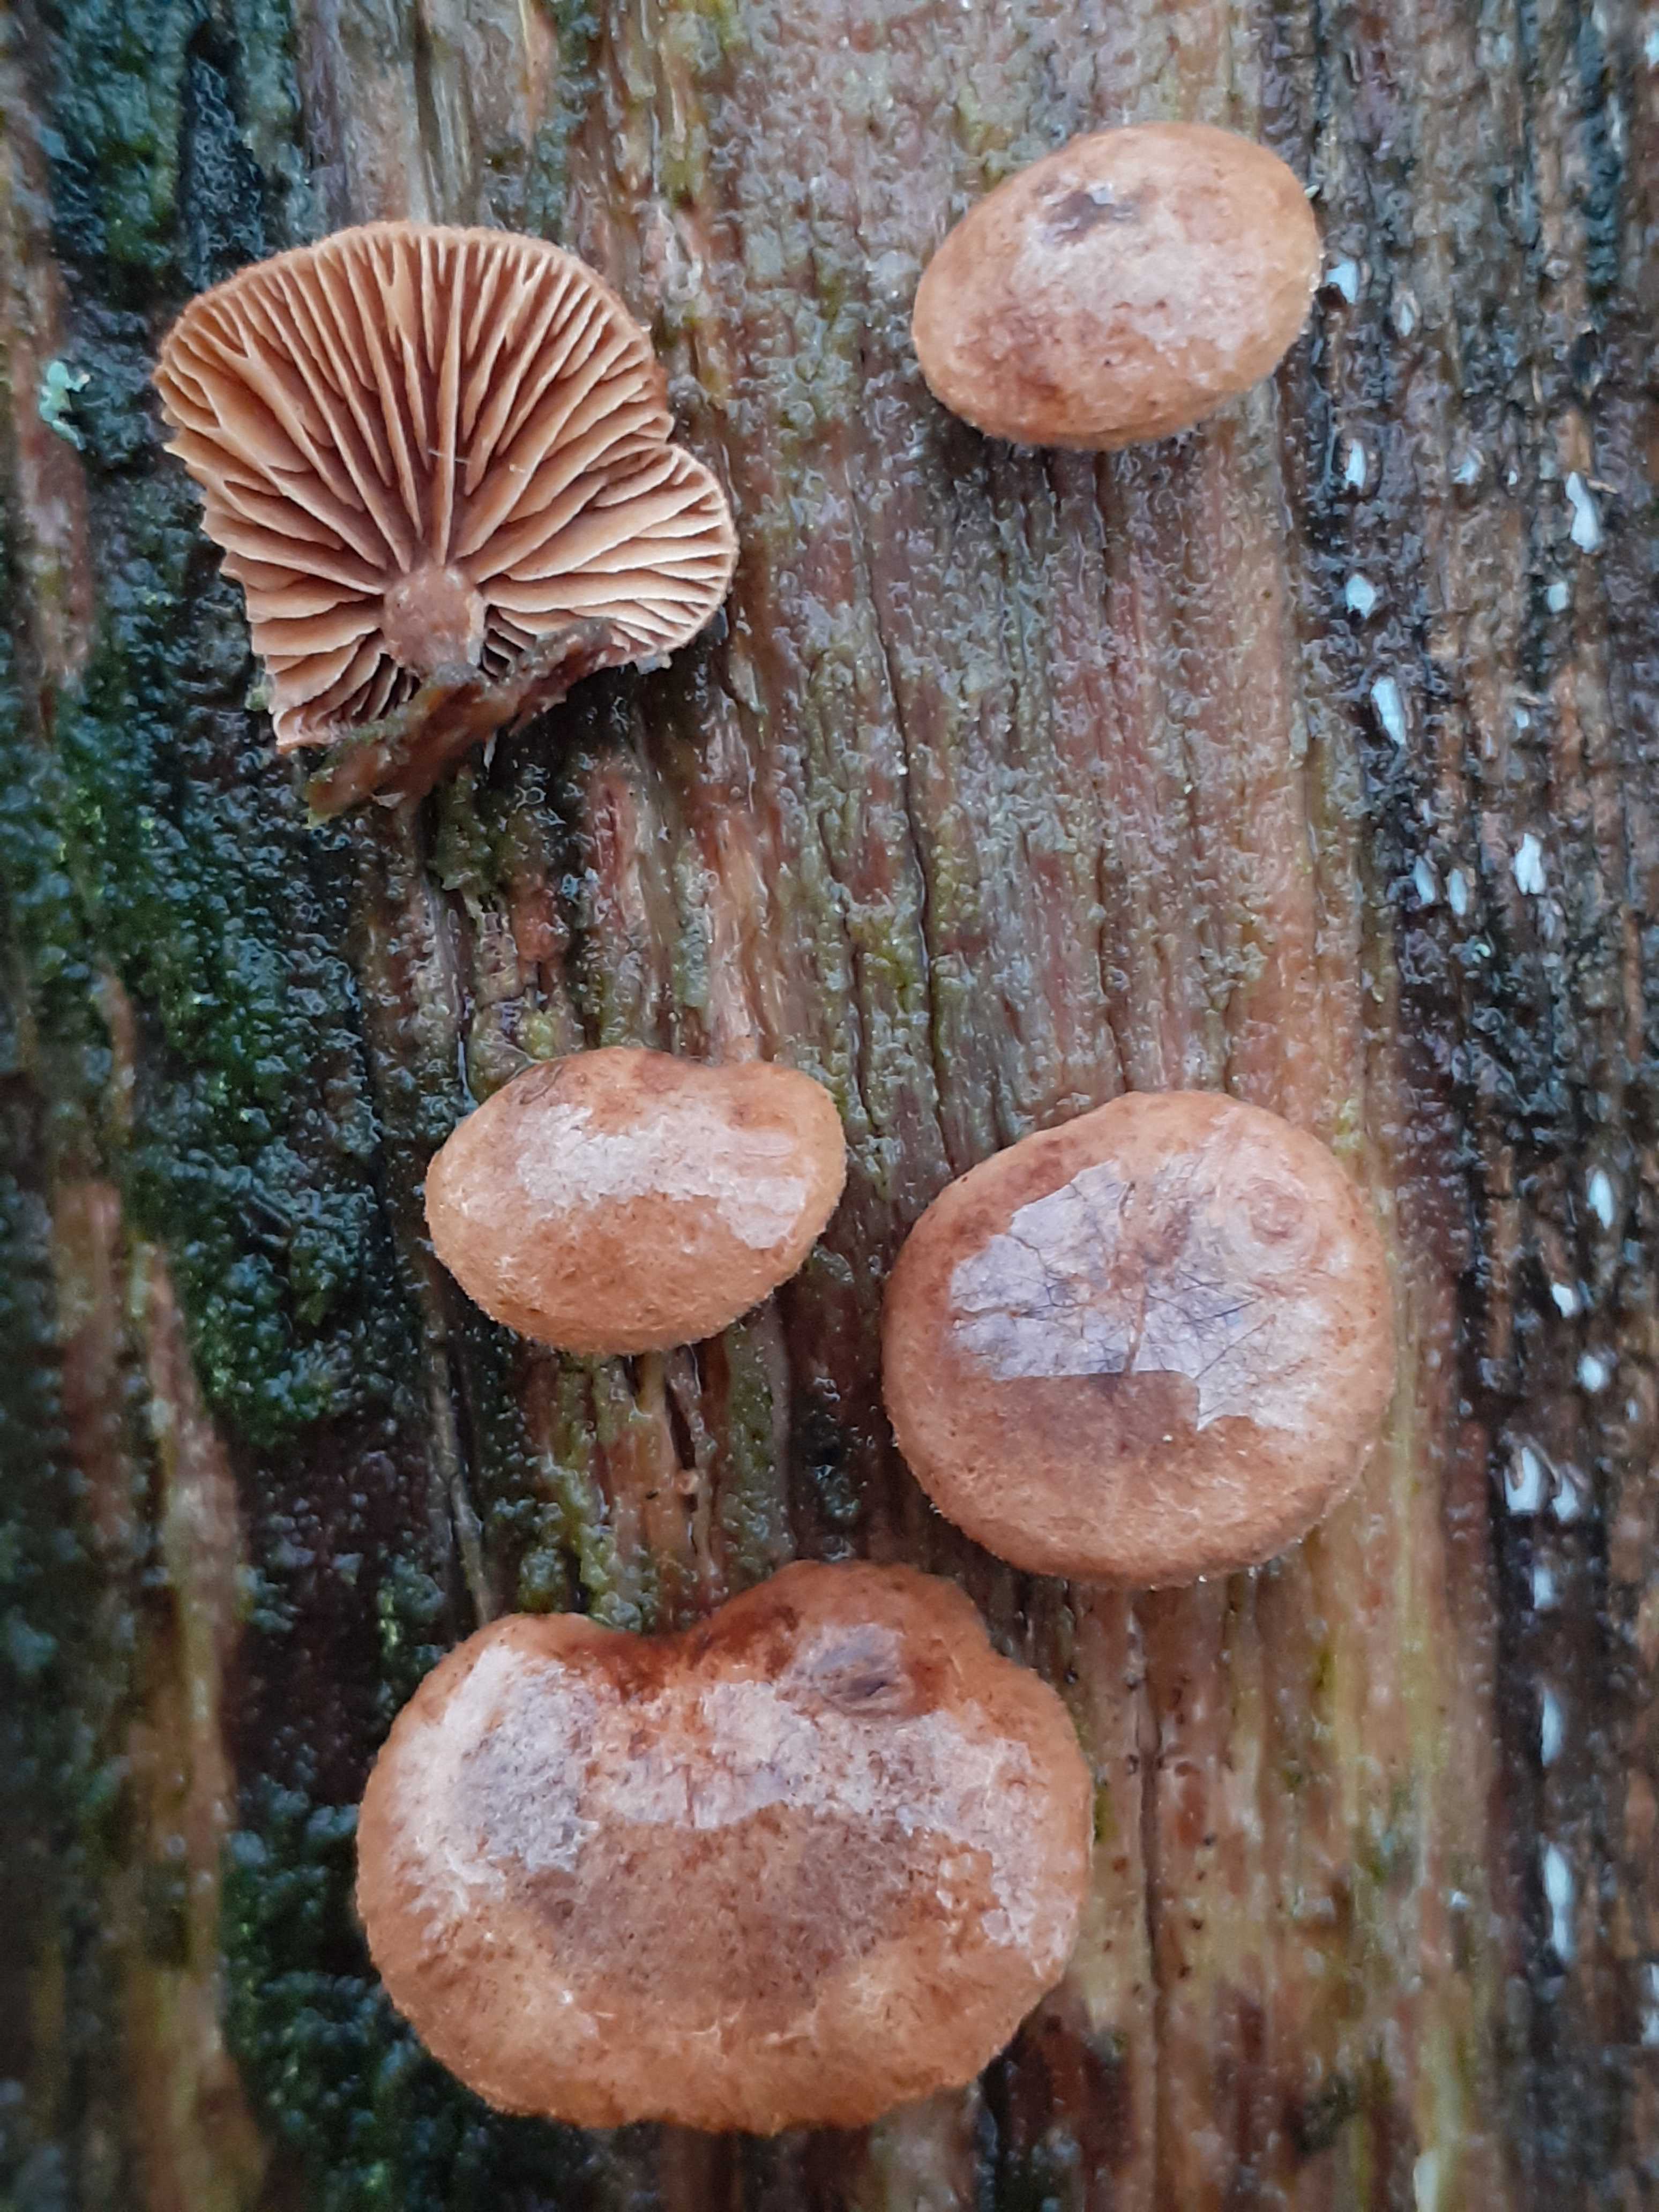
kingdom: Fungi
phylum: Basidiomycota
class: Agaricomycetes
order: Agaricales
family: Strophariaceae
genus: Deconica
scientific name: Deconica horizontalis
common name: ved-stråhat
